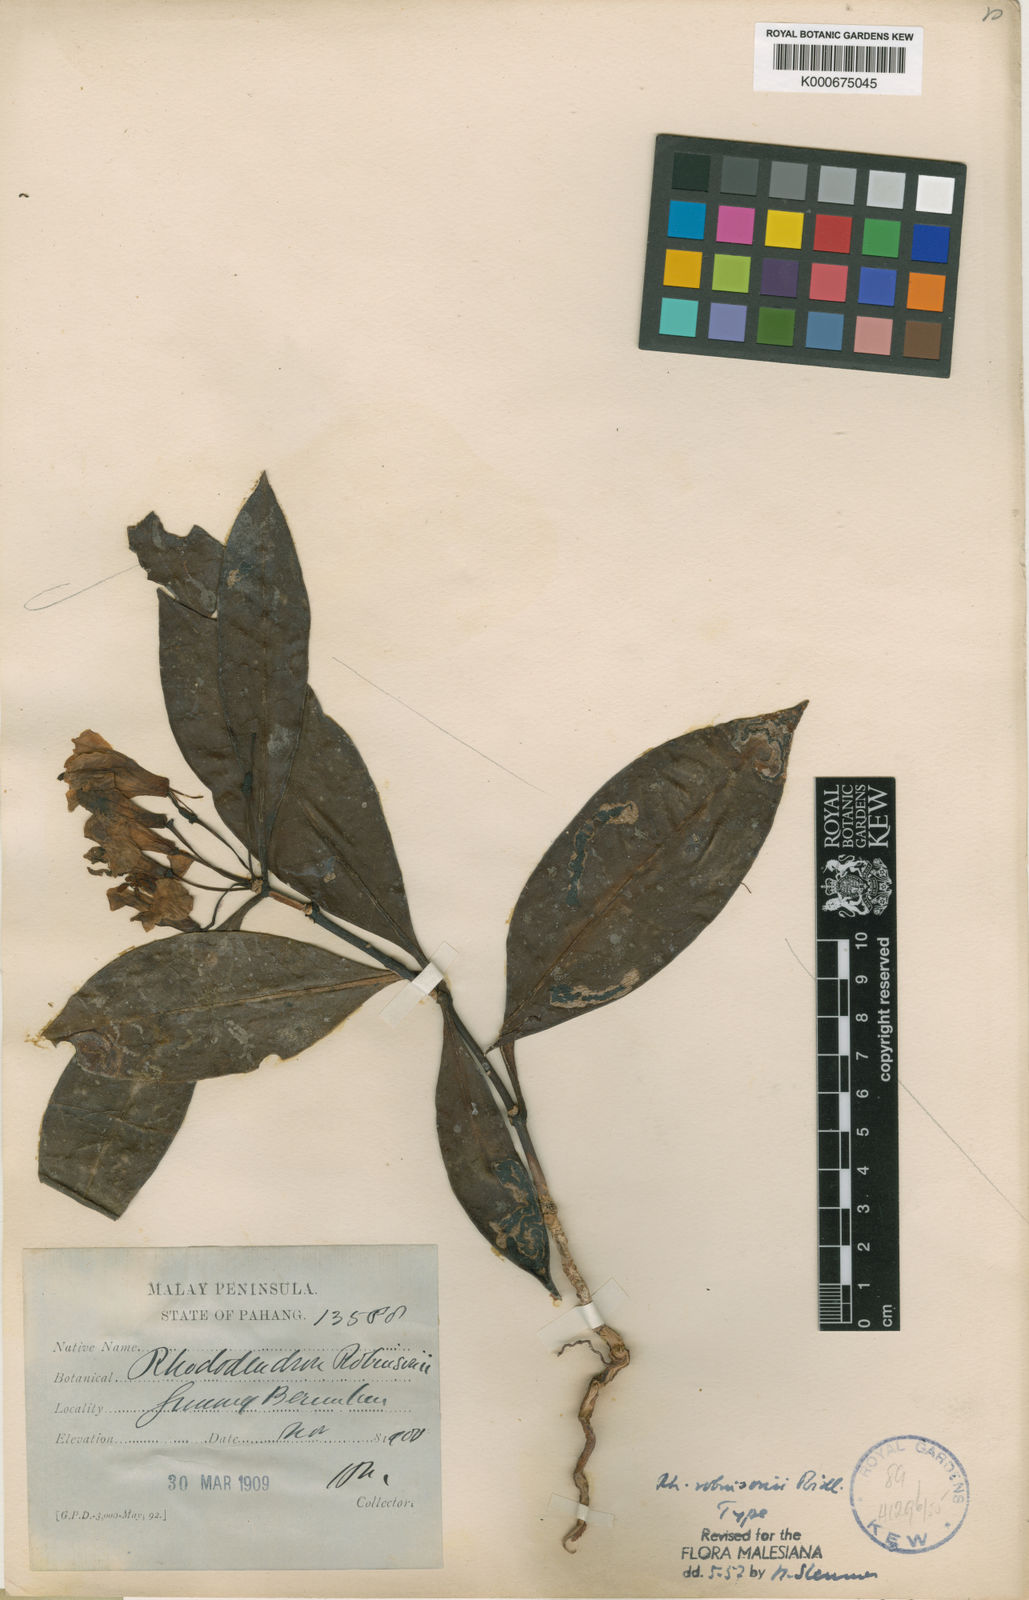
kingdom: Plantae
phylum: Tracheophyta
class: Magnoliopsida
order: Ericales
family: Ericaceae
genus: Rhododendron
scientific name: Rhododendron robinsonii
